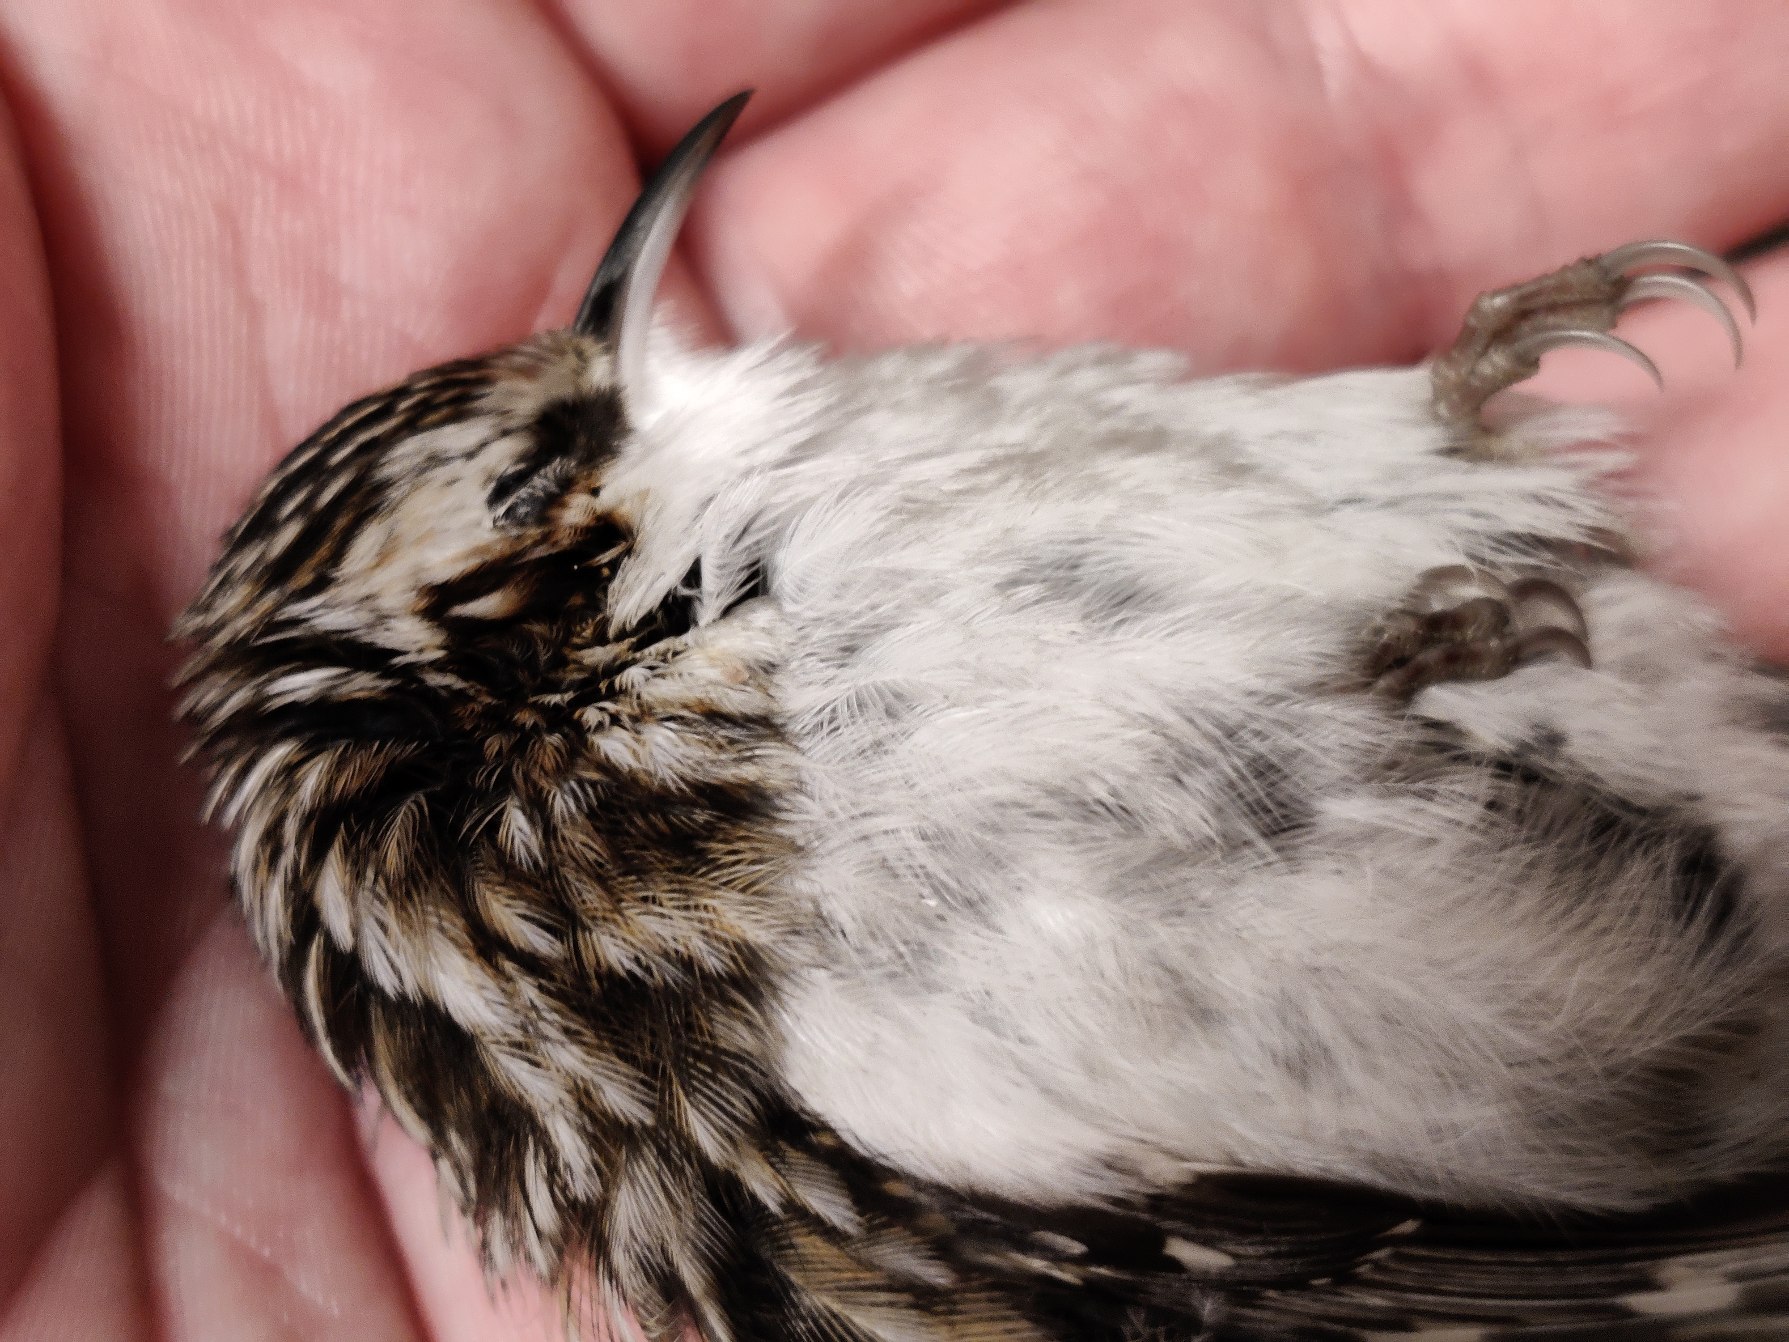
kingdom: Animalia
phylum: Chordata
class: Aves
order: Passeriformes
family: Certhiidae
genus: Certhia
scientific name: Certhia familiaris
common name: Træløber
